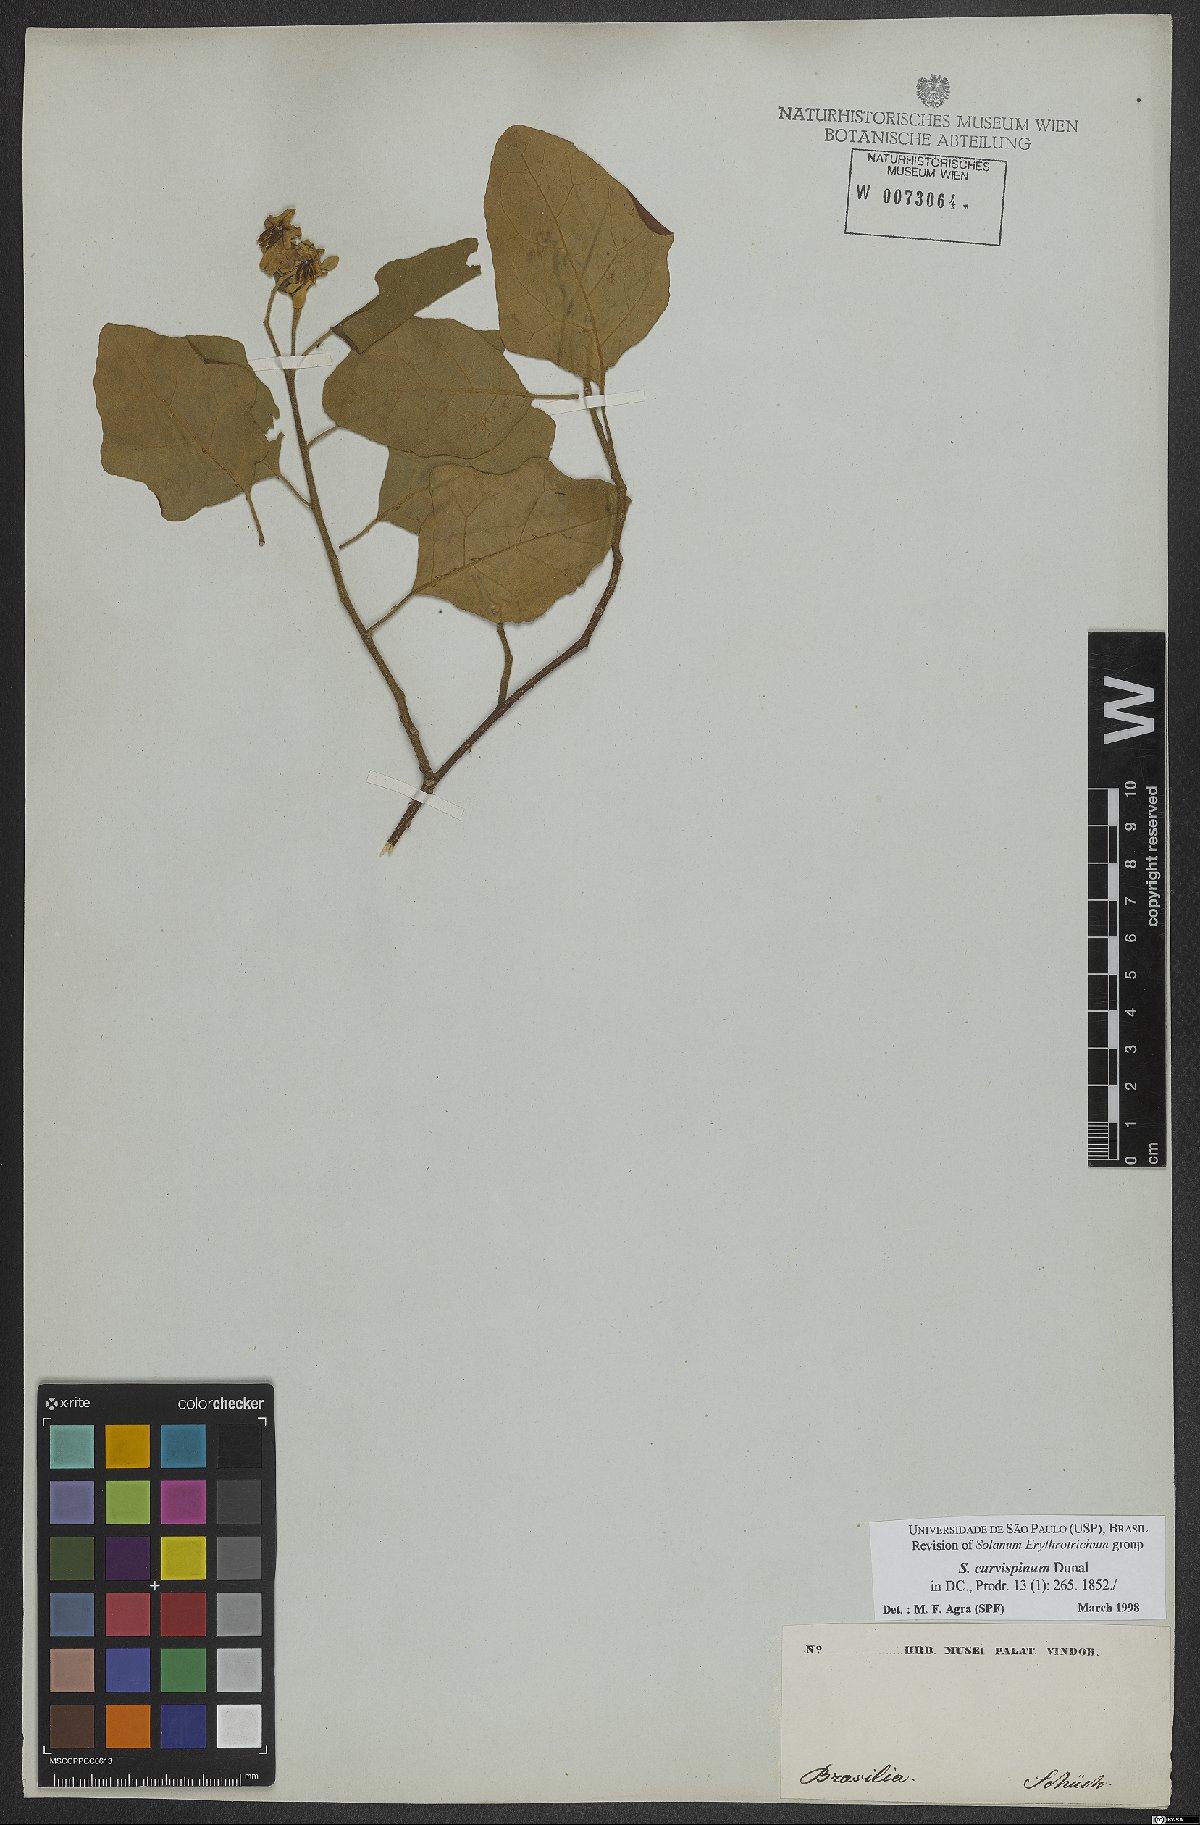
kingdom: Plantae
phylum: Tracheophyta
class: Magnoliopsida
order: Solanales
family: Solanaceae
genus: Solanum
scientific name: Solanum jussiaei
